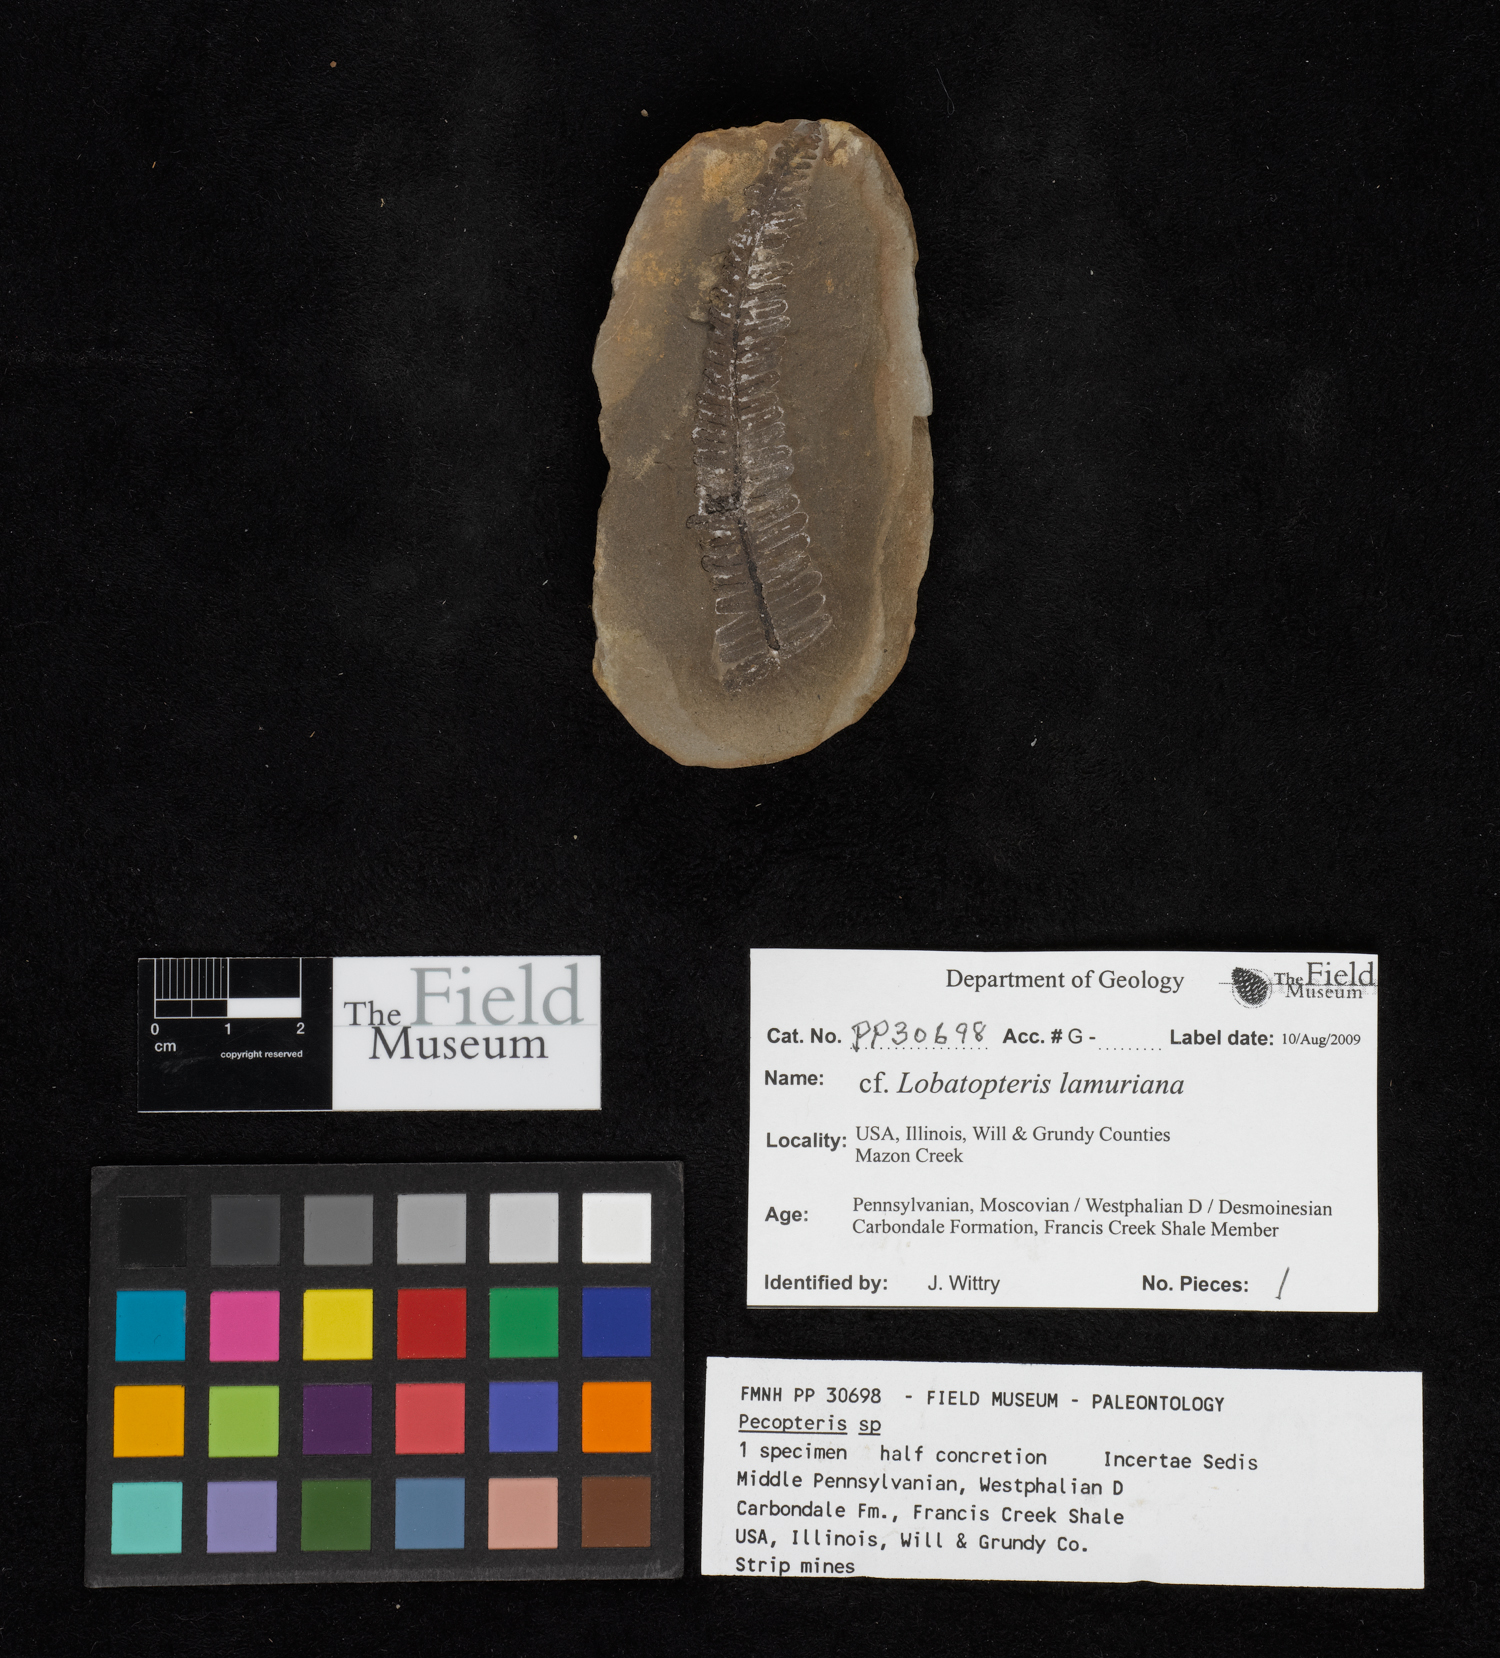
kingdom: Plantae
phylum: Tracheophyta
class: Polypodiopsida
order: Marattiales
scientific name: Marattiales
